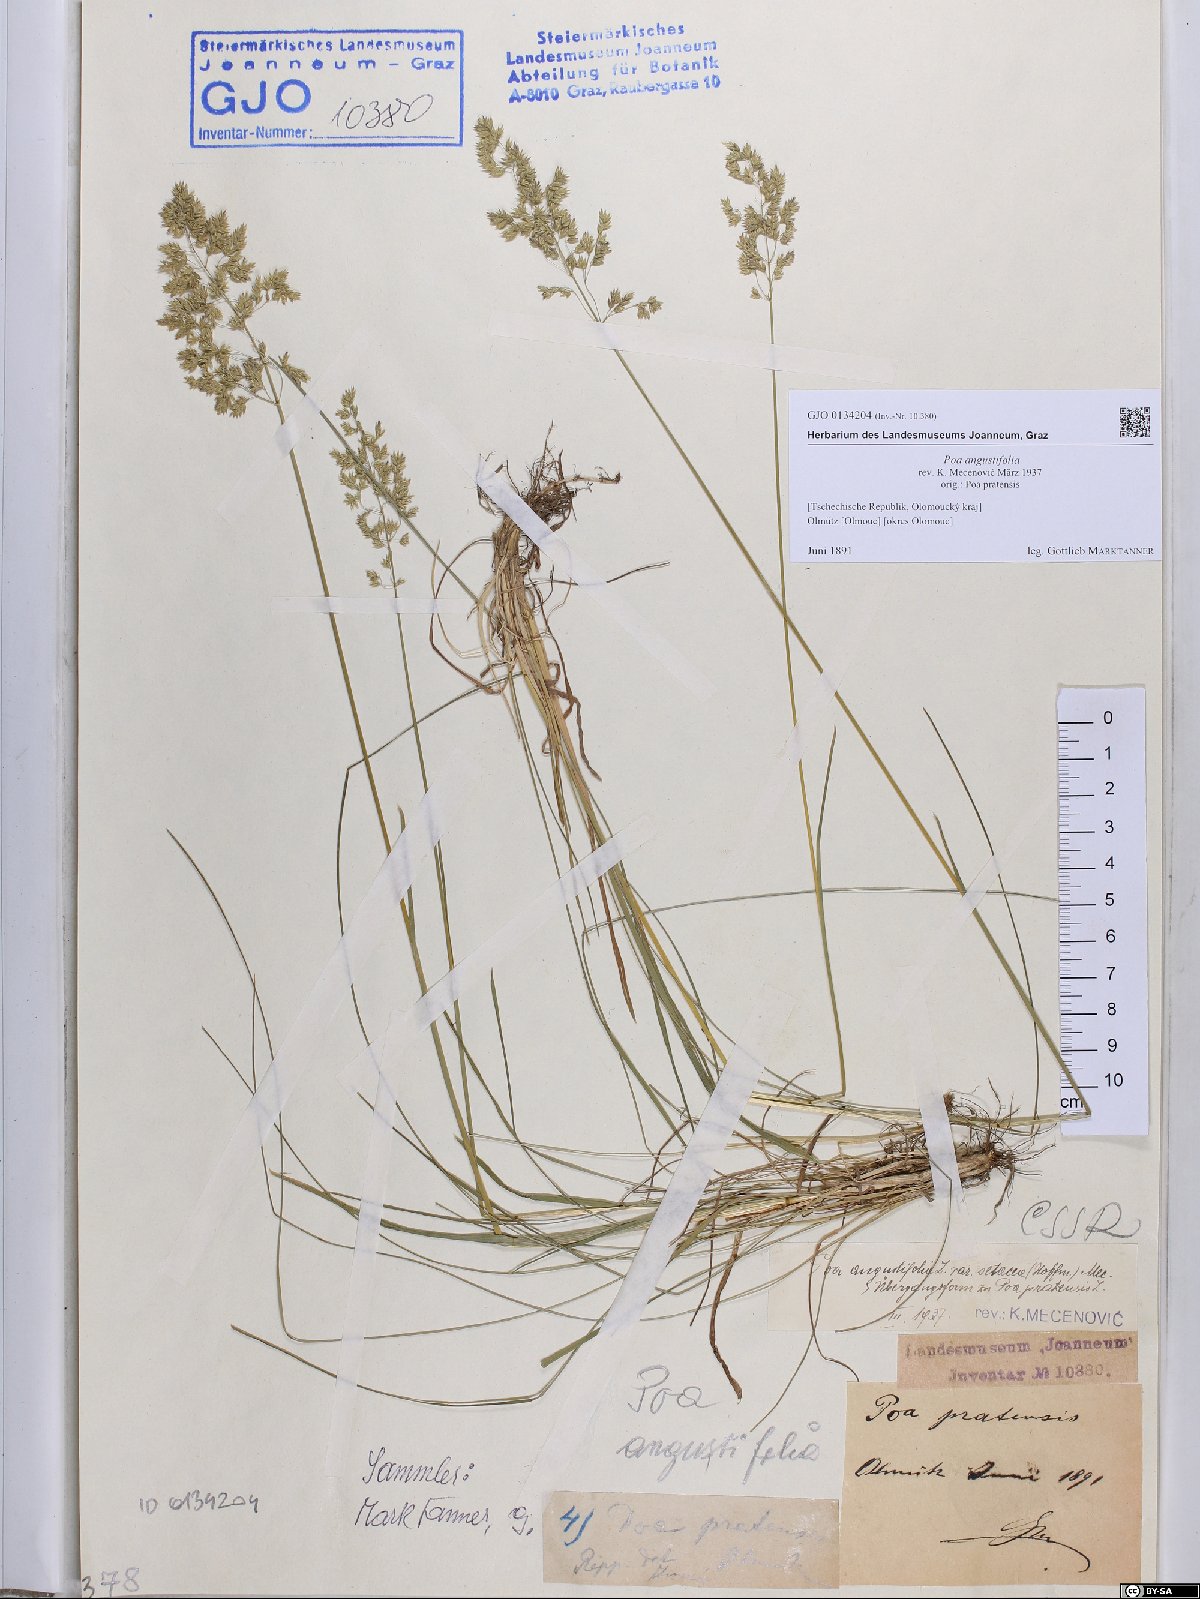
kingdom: Plantae
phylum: Tracheophyta
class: Liliopsida
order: Poales
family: Poaceae
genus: Poa
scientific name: Poa angustifolia
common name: Narrow-leaved meadow-grass
